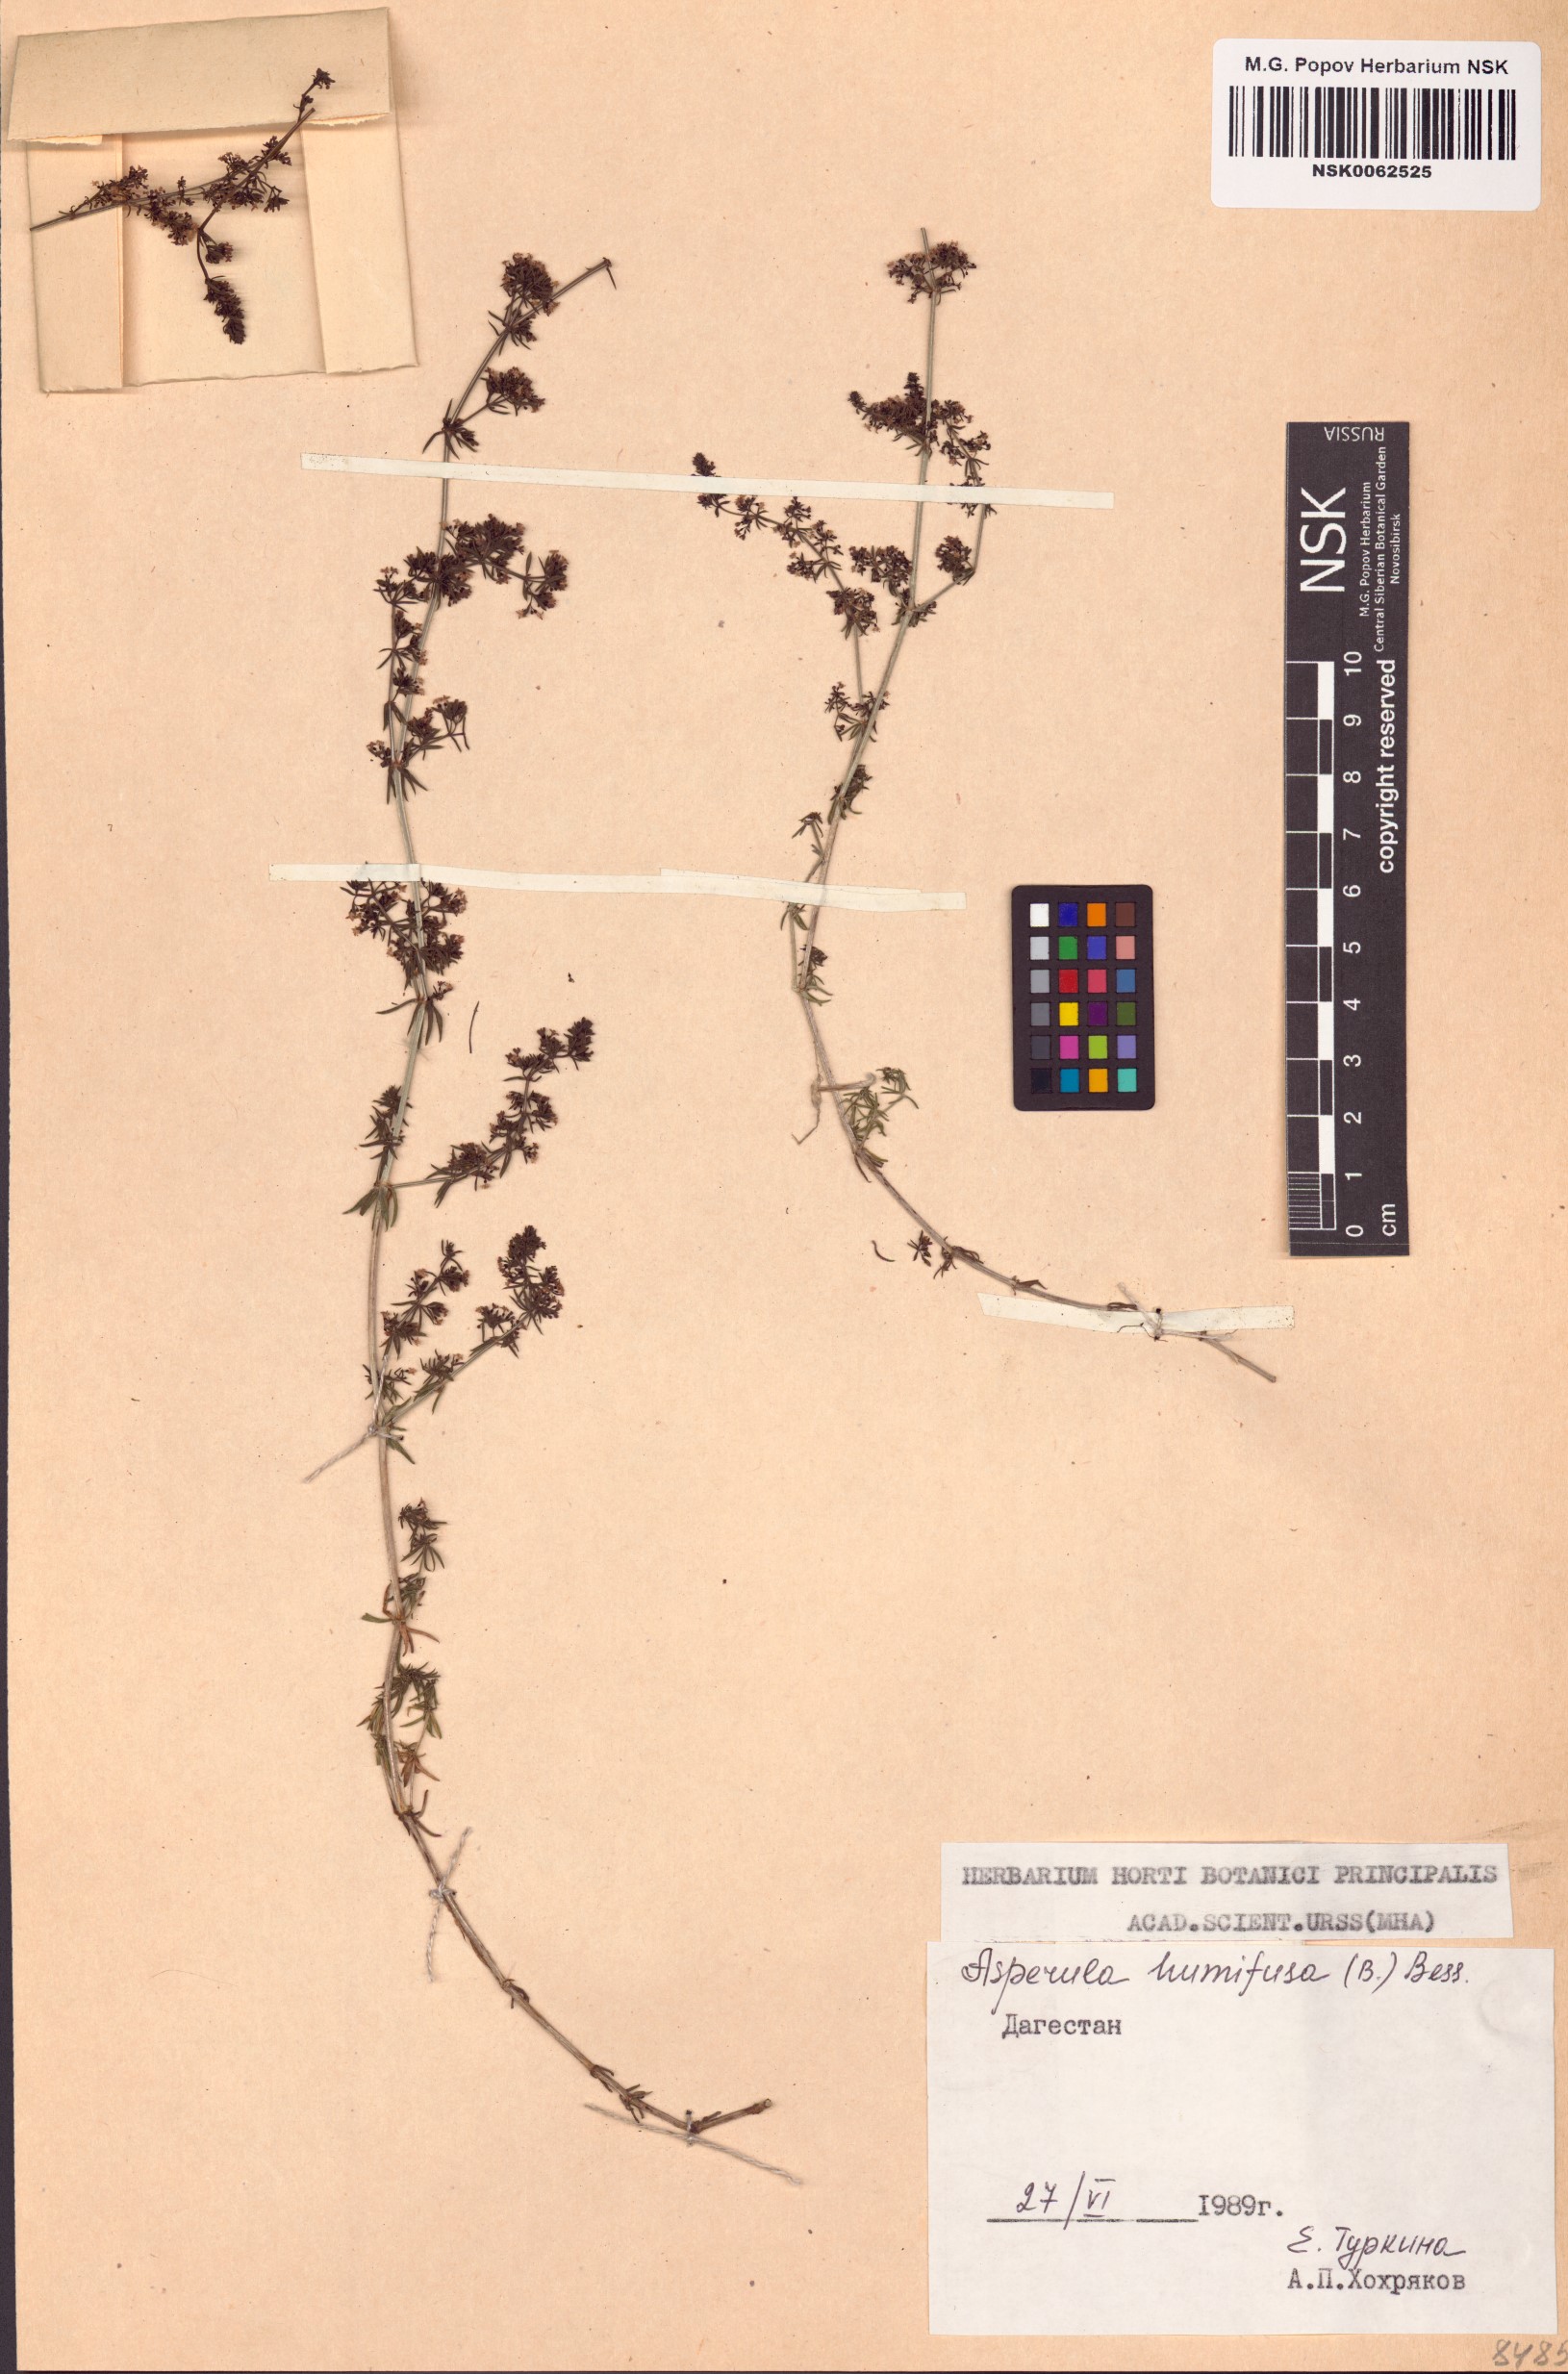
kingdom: Plantae
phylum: Tracheophyta
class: Magnoliopsida
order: Gentianales
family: Rubiaceae
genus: Galium
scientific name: Galium humifusum
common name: Spreading bedstraw
